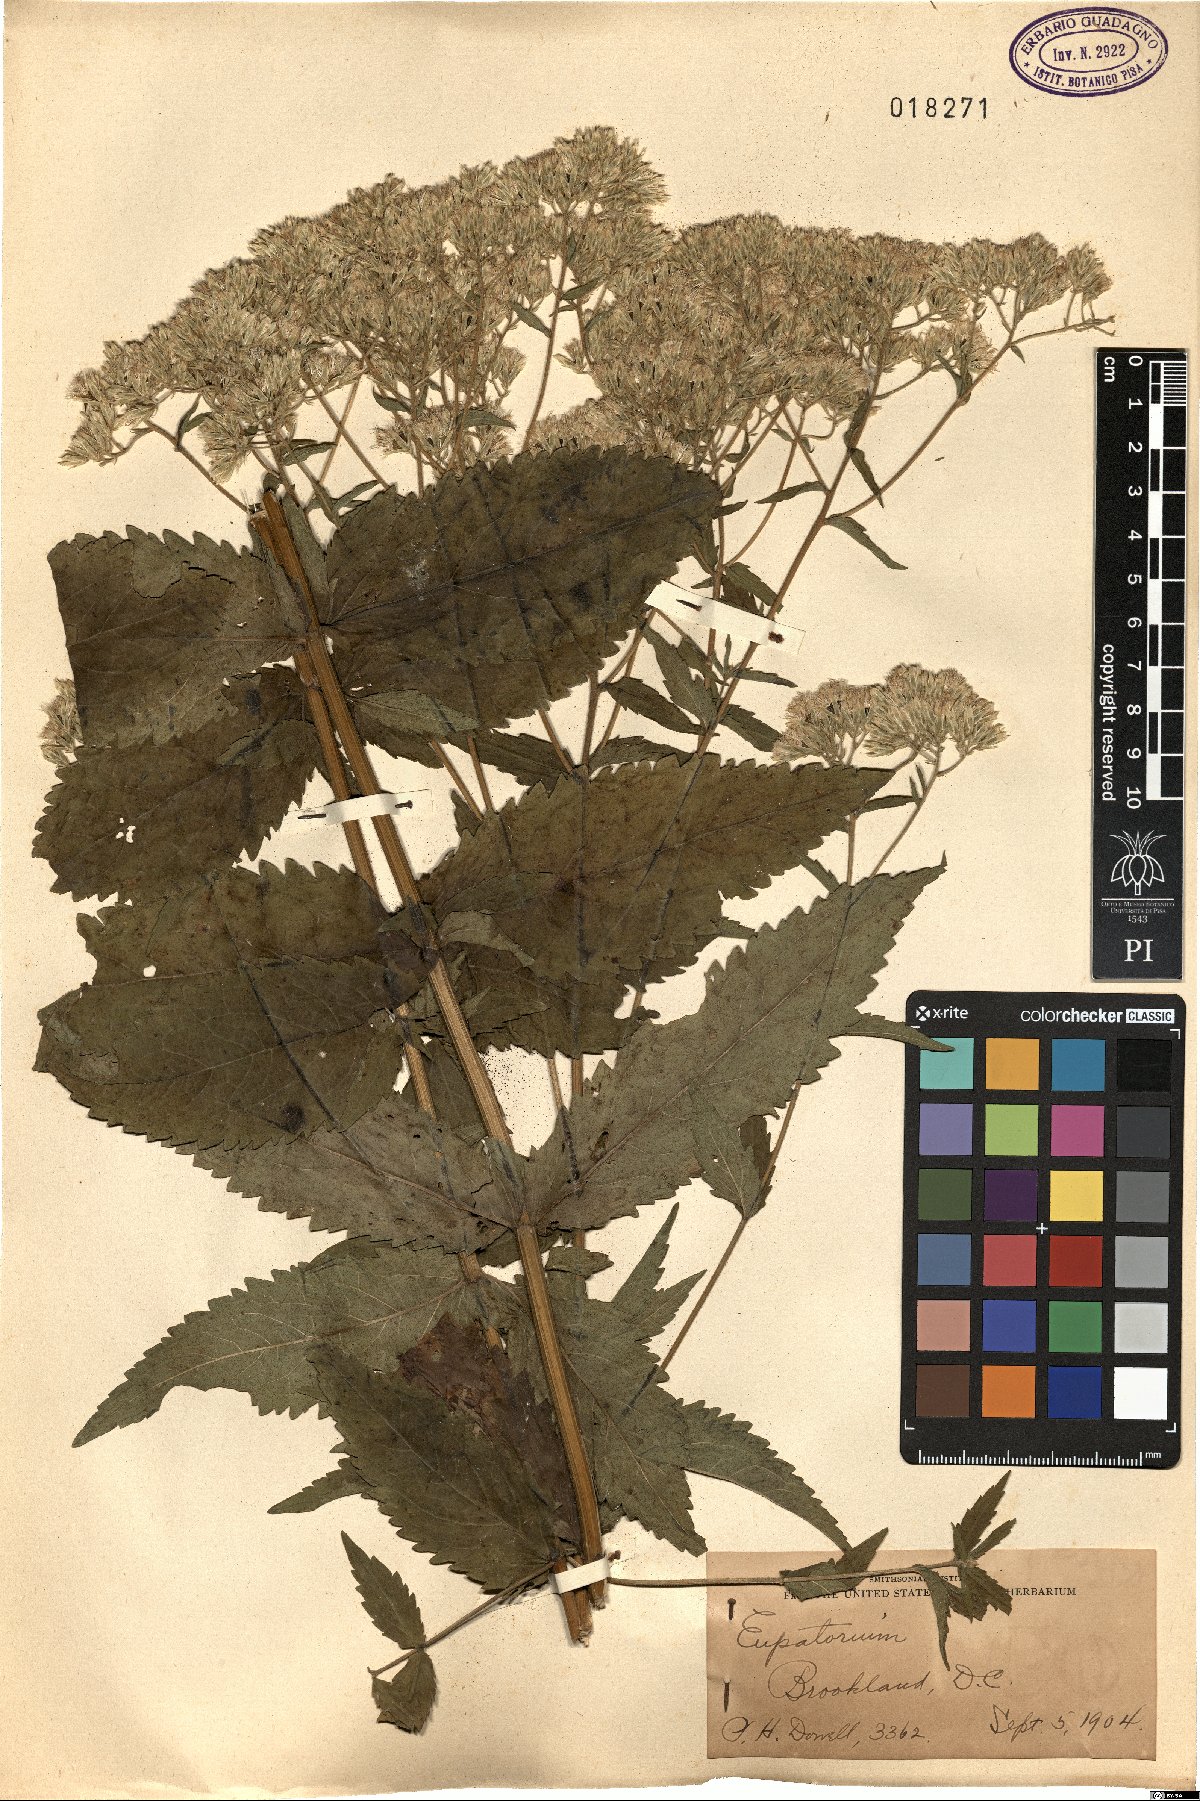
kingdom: Plantae
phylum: Tracheophyta
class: Magnoliopsida
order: Asterales
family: Asteraceae
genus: Eupatorium
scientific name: Eupatorium
